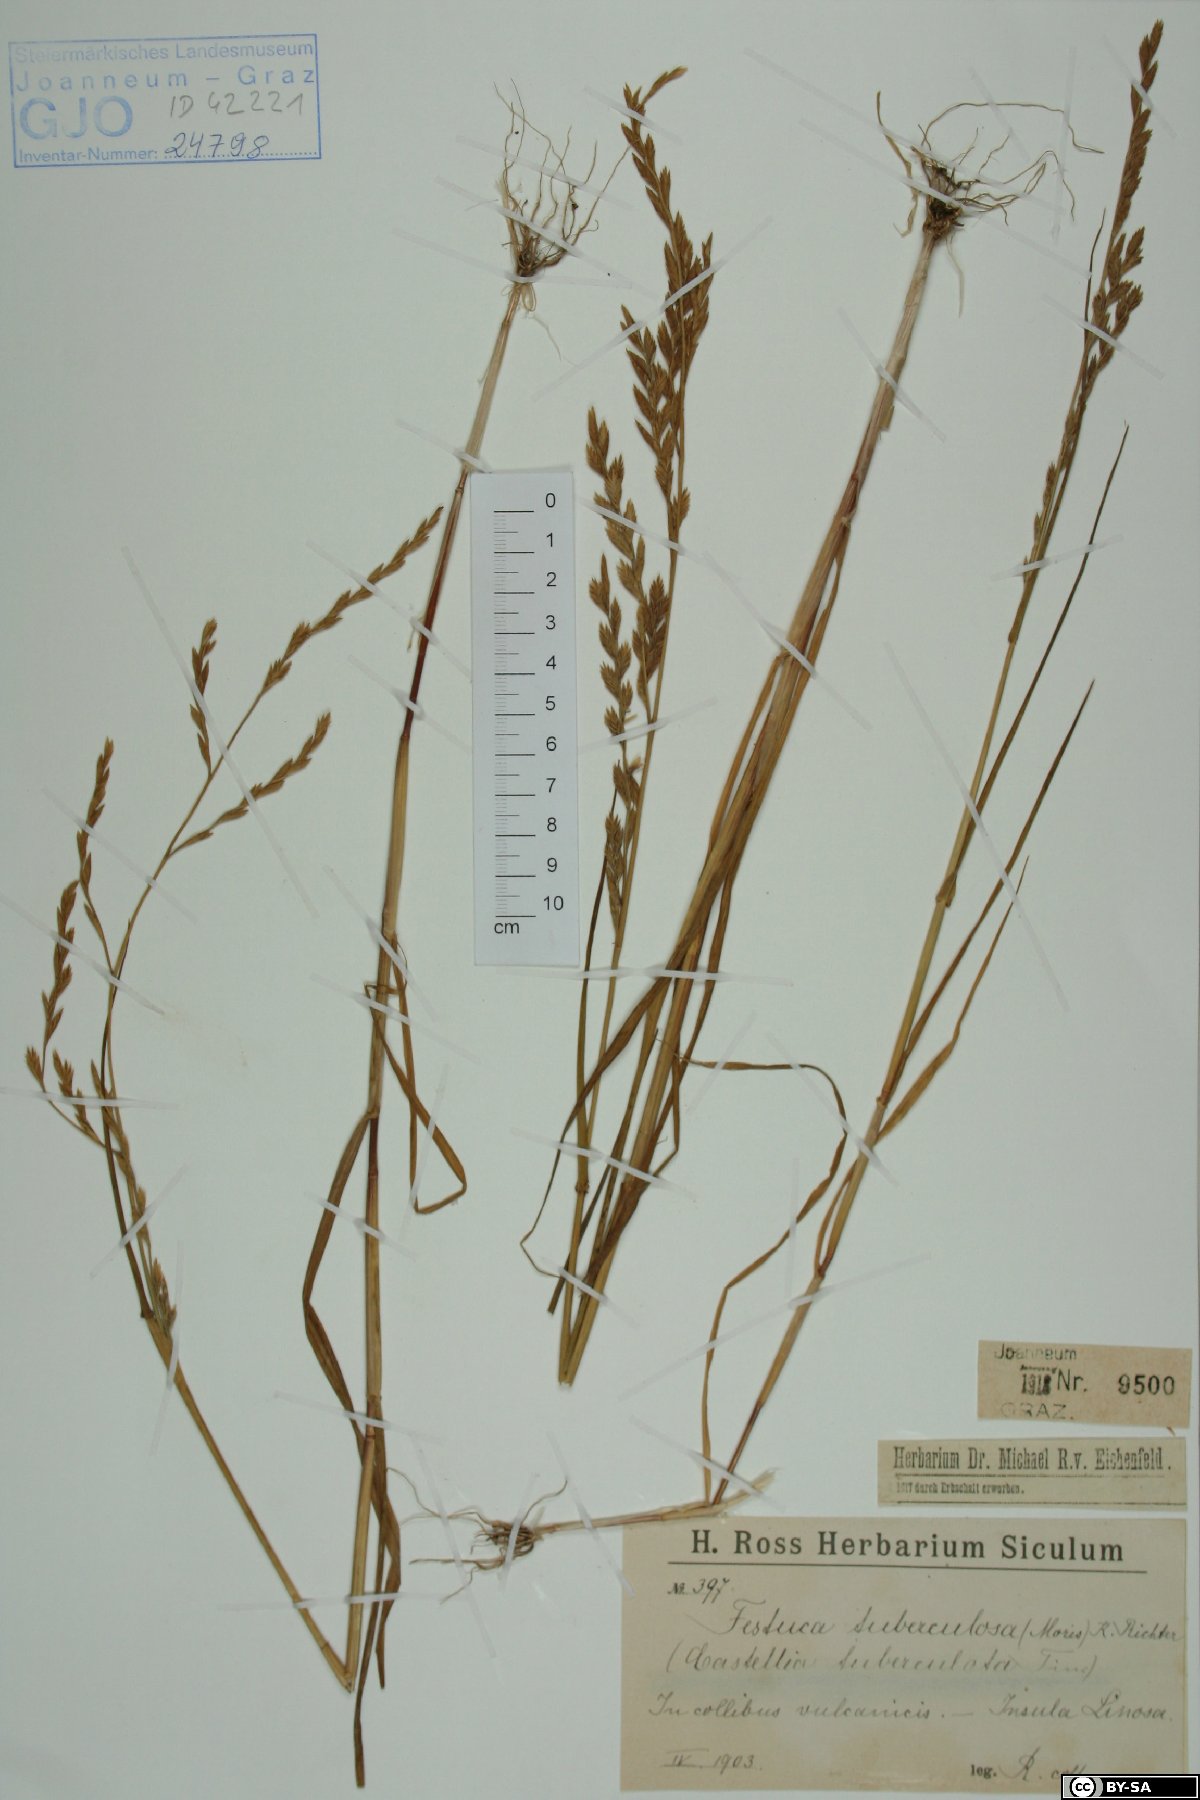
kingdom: Plantae
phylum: Tracheophyta
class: Liliopsida
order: Poales
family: Poaceae
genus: Castellia
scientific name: Castellia tuberculosa
